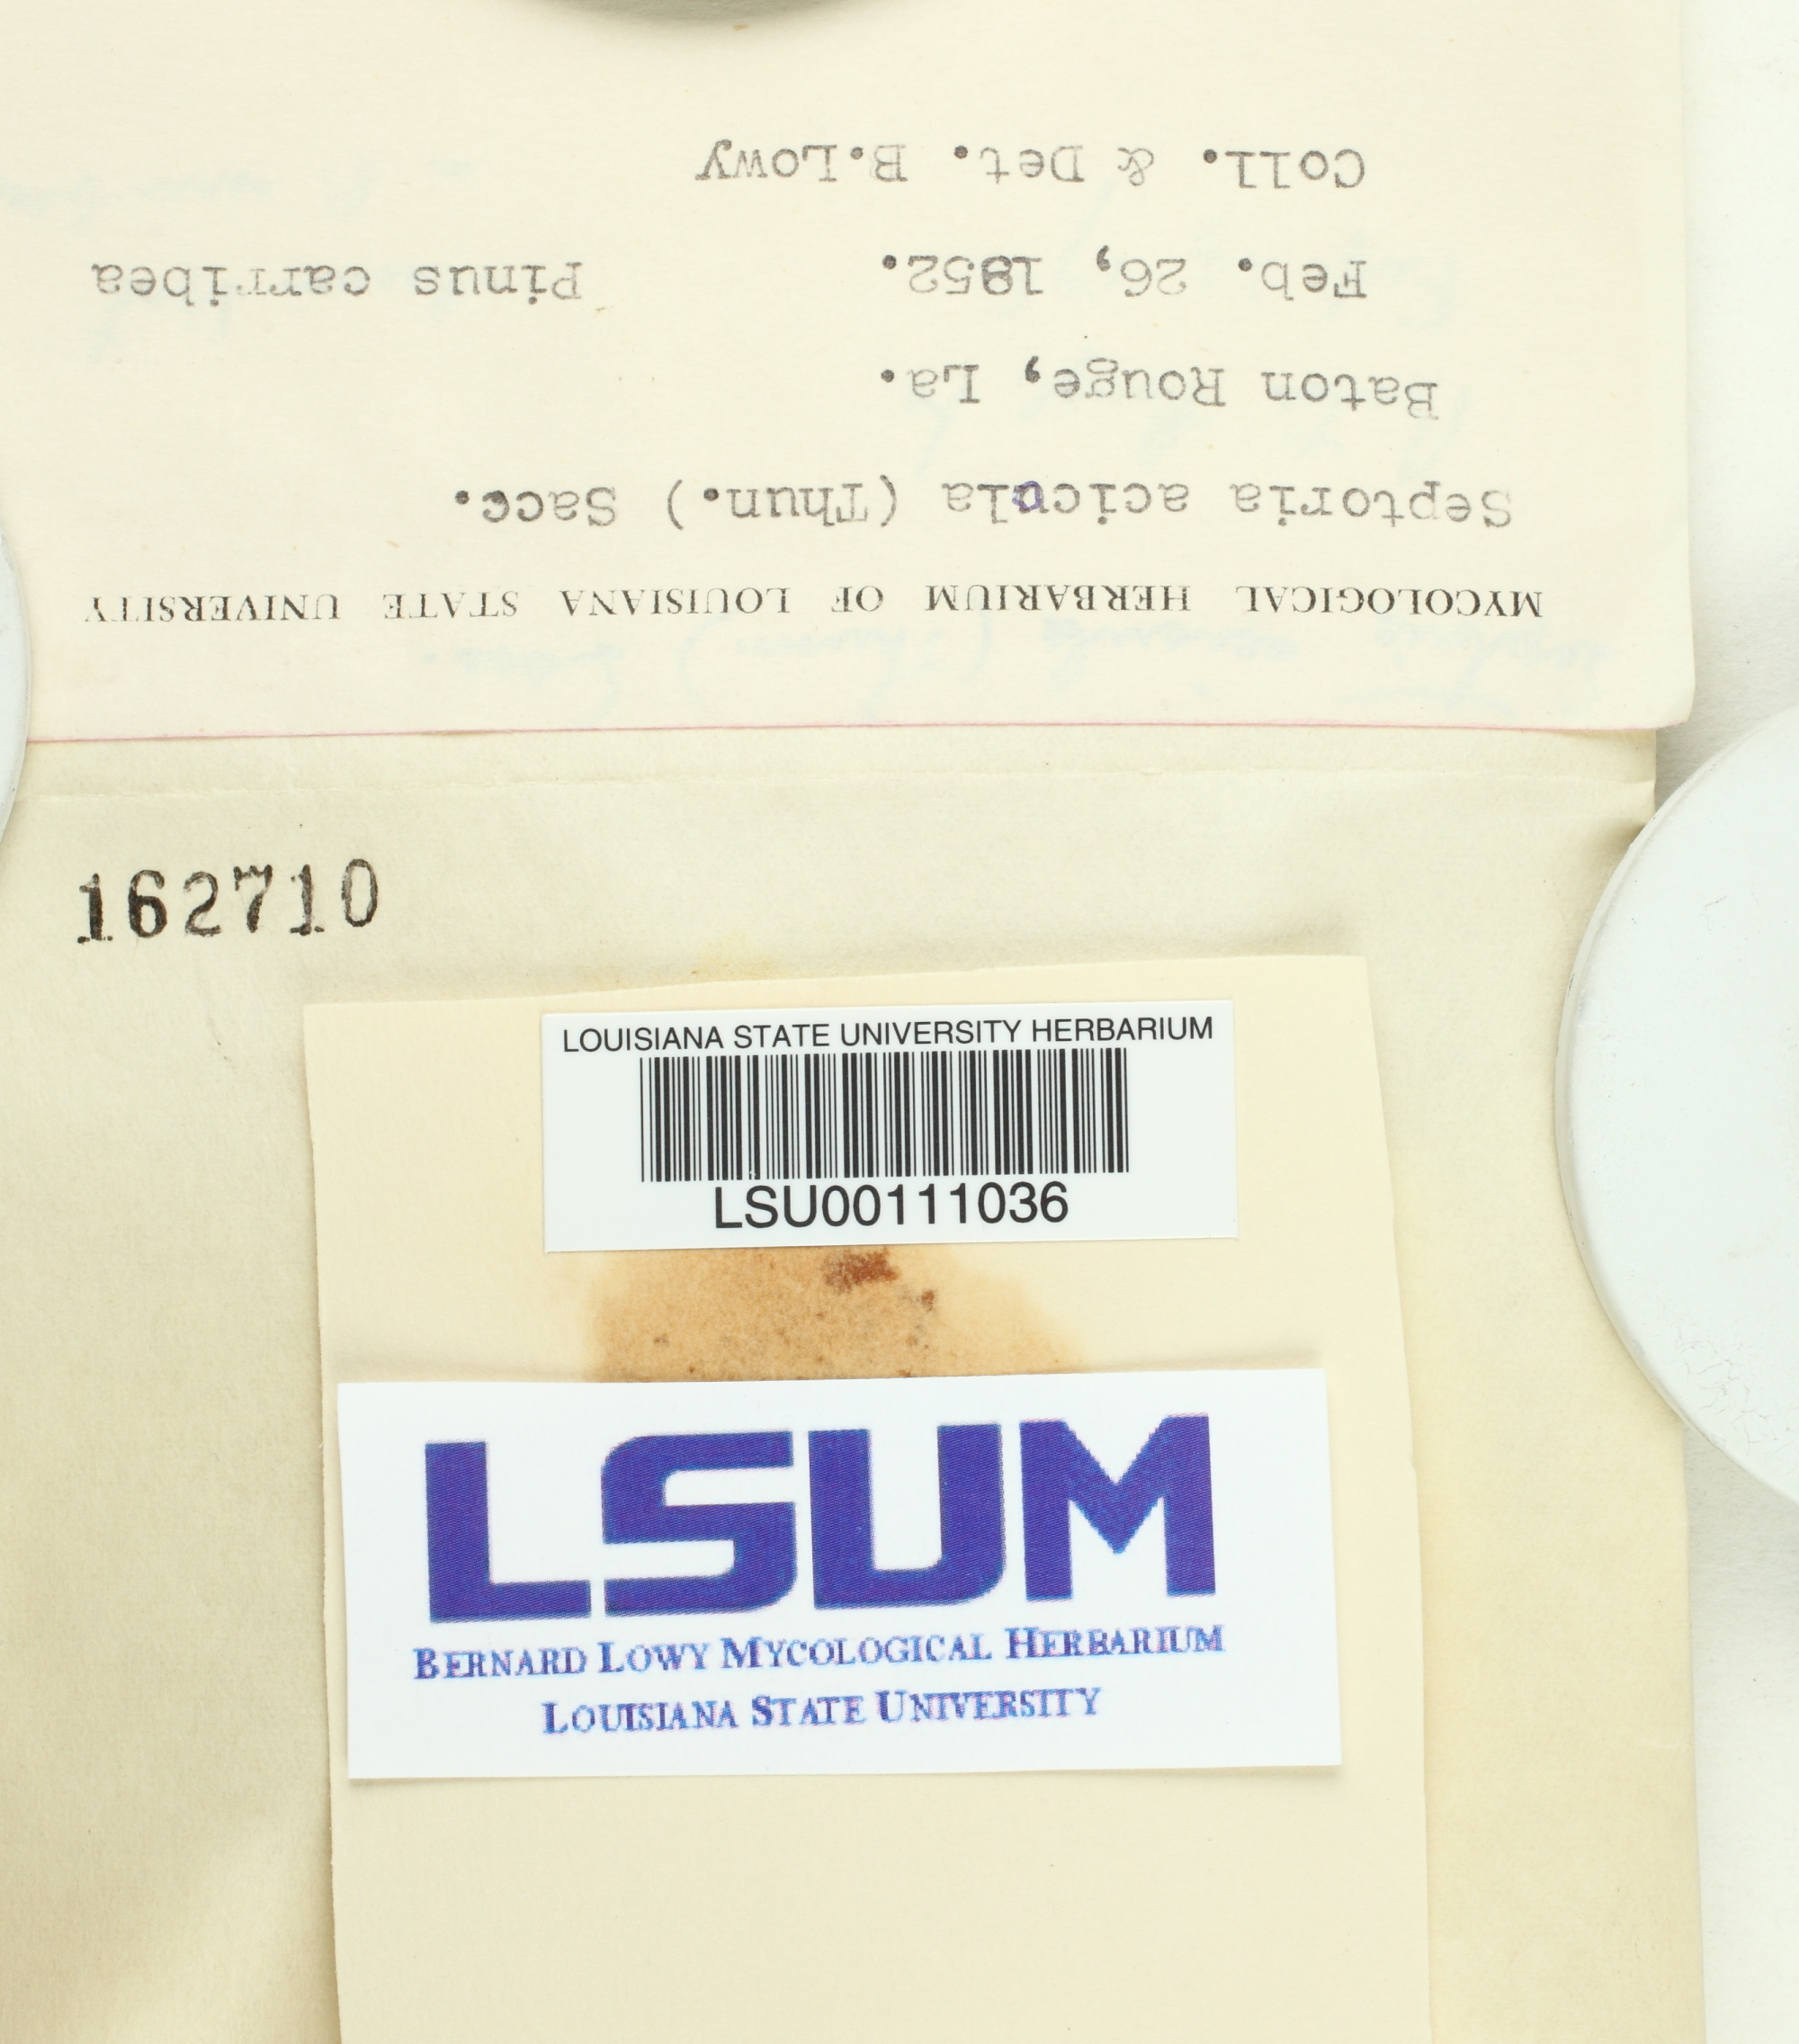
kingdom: Fungi
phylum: Ascomycota
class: Dothideomycetes
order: Mycosphaerellales
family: Mycosphaerellaceae
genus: Lecanosticta
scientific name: Lecanosticta acicola
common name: Brown spot needle blight
